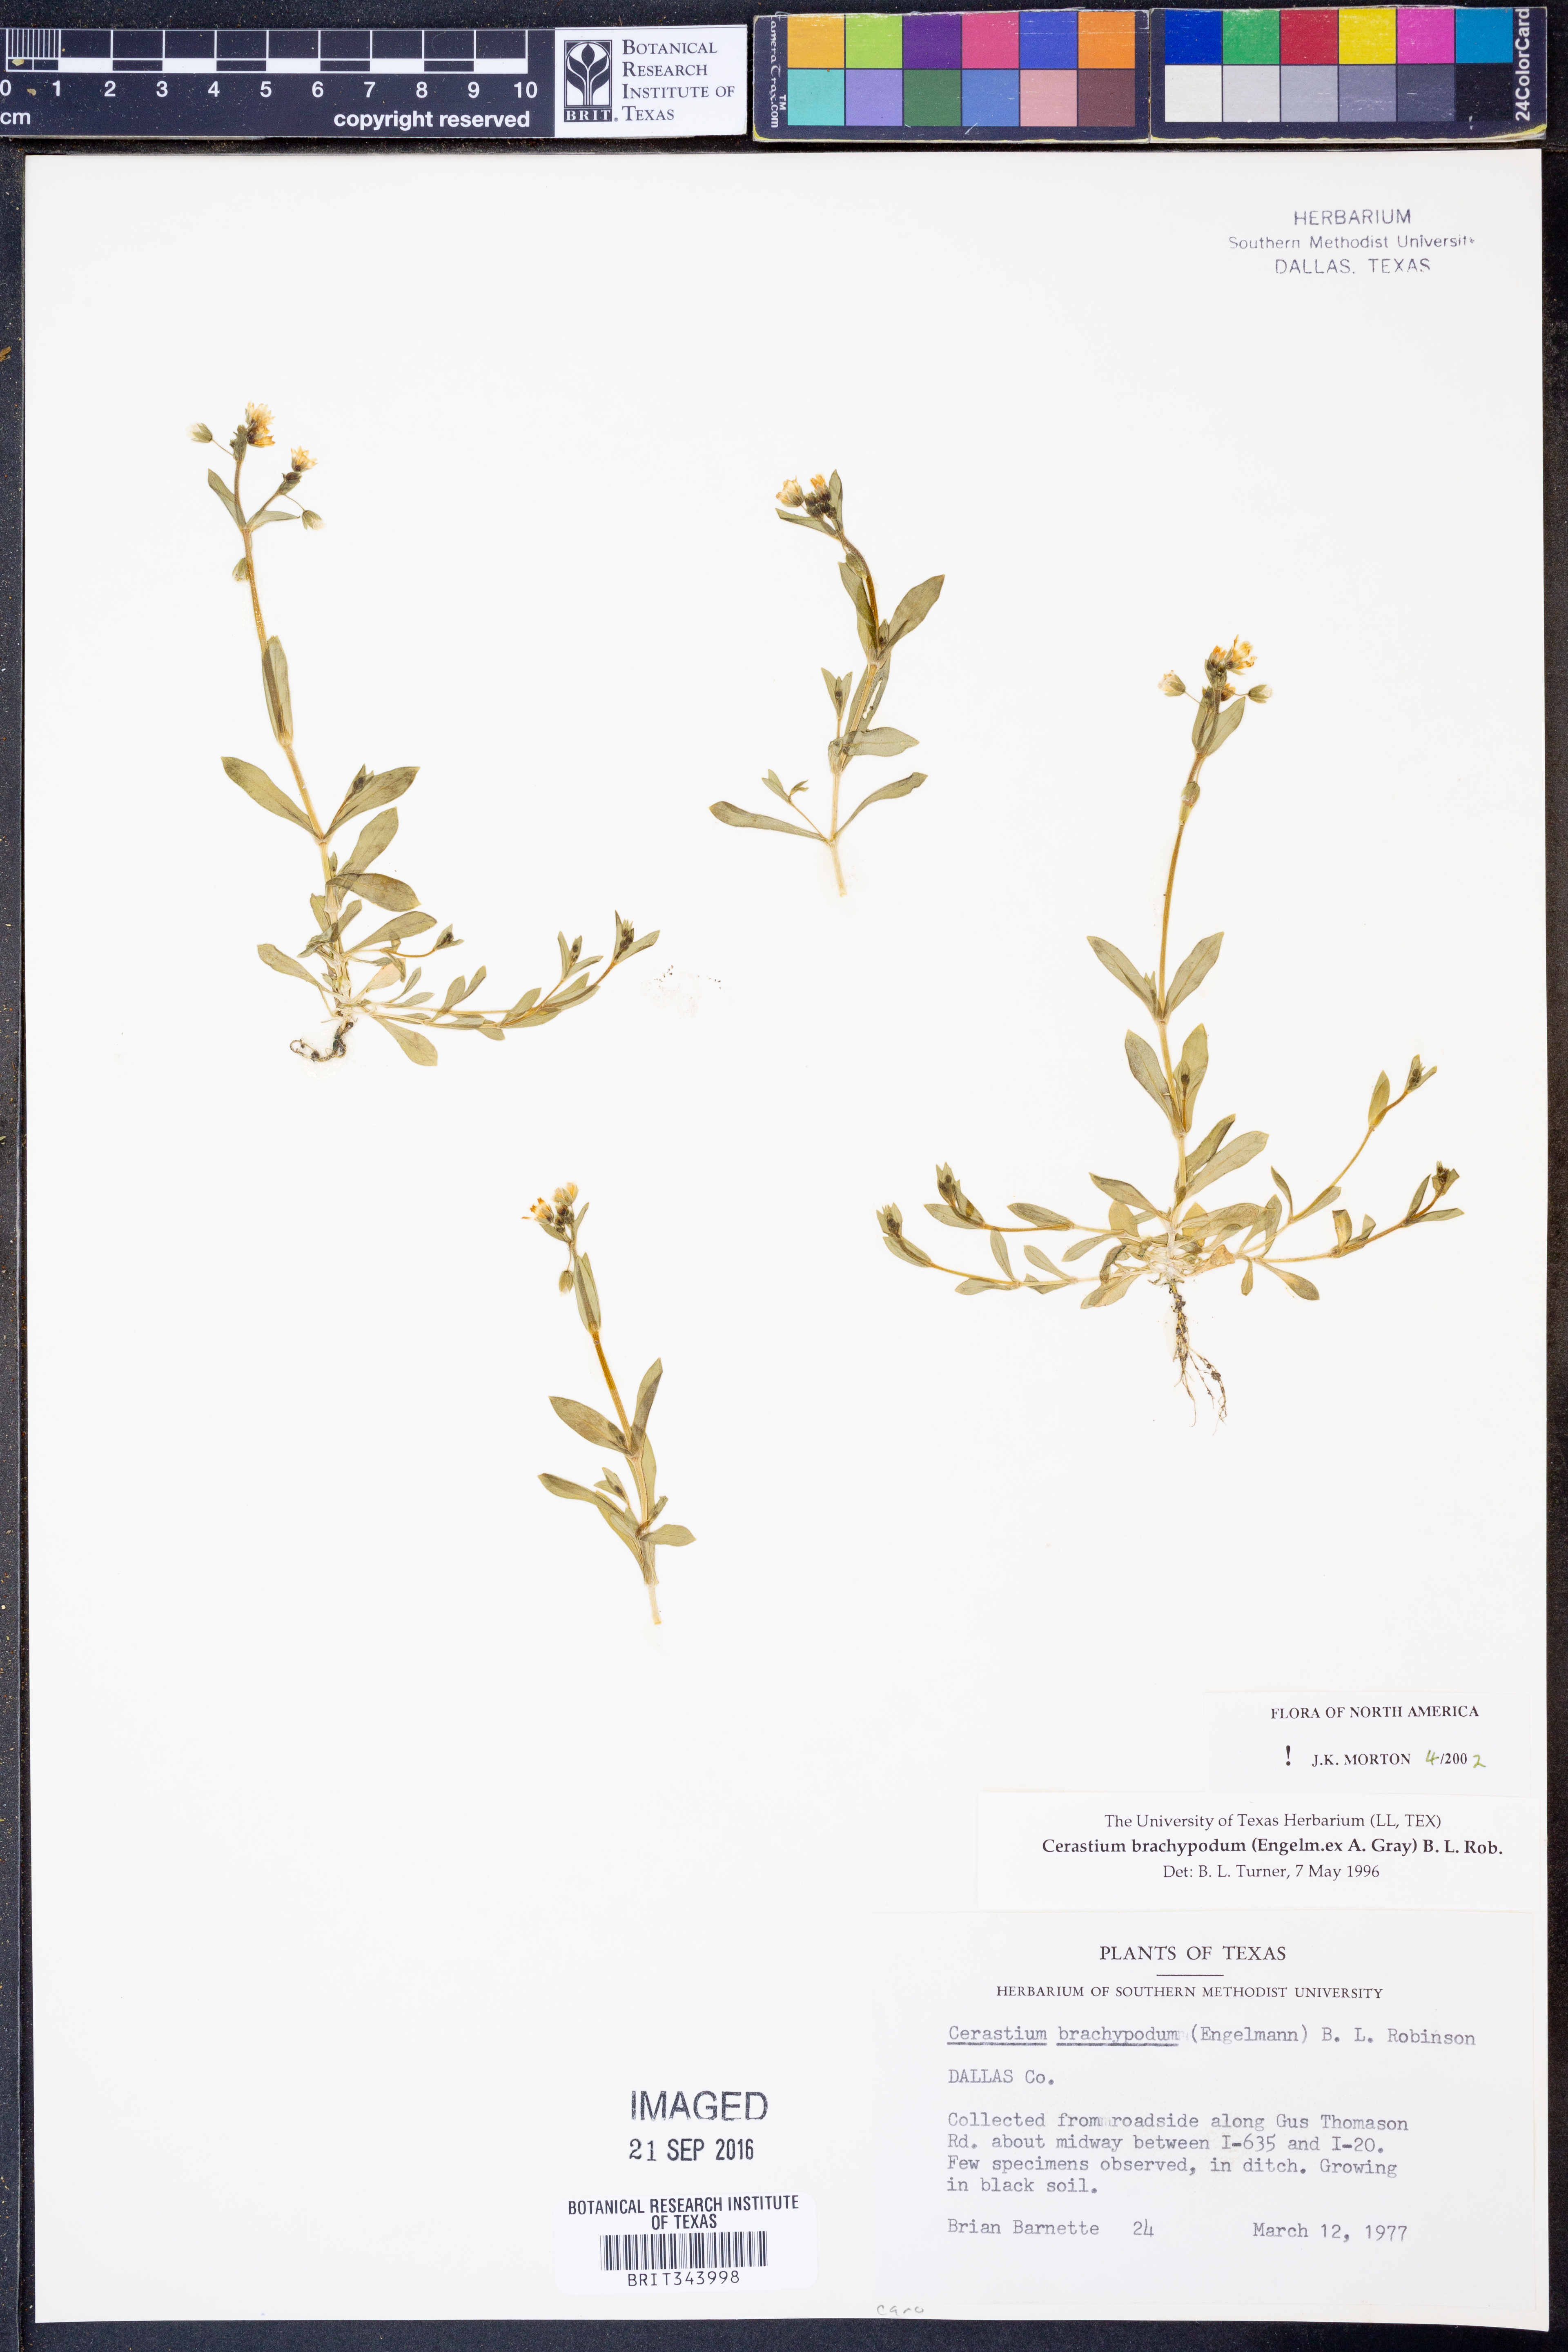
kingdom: Plantae
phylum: Tracheophyta
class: Magnoliopsida
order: Caryophyllales
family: Caryophyllaceae
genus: Cerastium
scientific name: Cerastium brachypodum
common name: Short-pedicelled nodding chickweed
